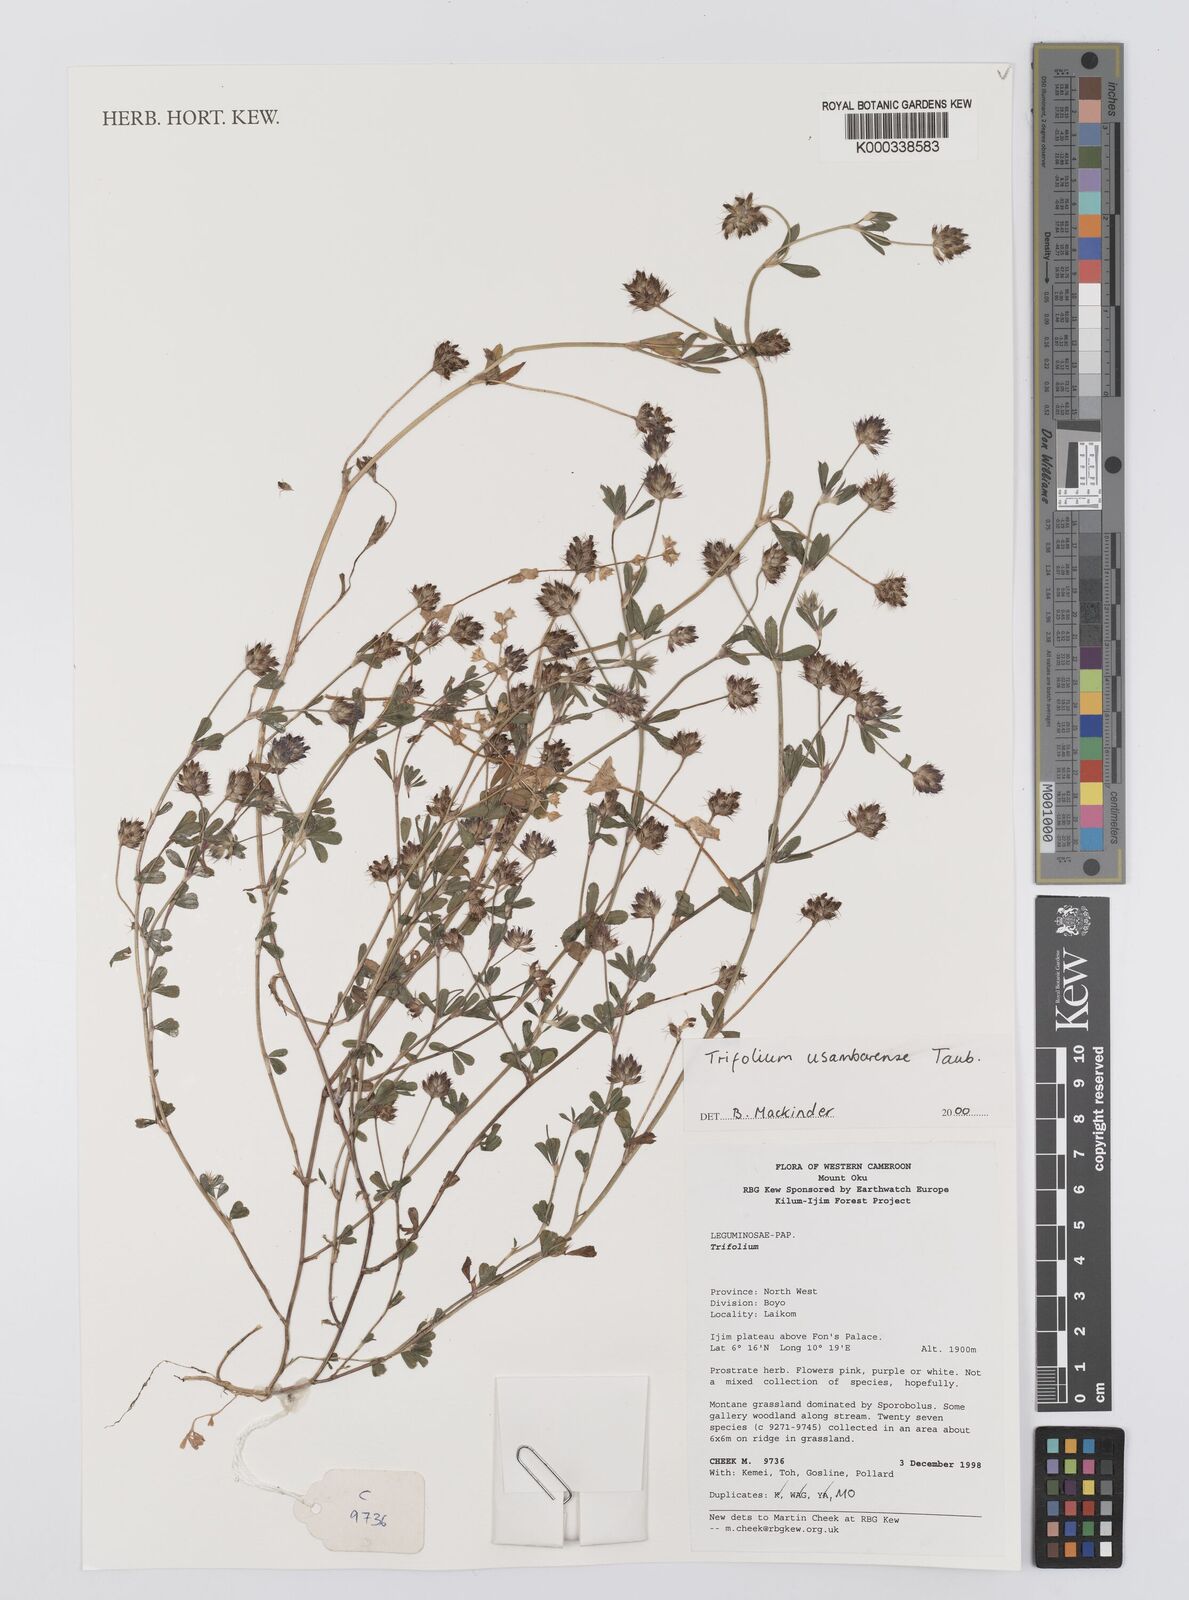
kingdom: Plantae
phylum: Tracheophyta
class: Magnoliopsida
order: Fabales
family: Fabaceae
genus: Trifolium
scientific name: Trifolium usambarense
